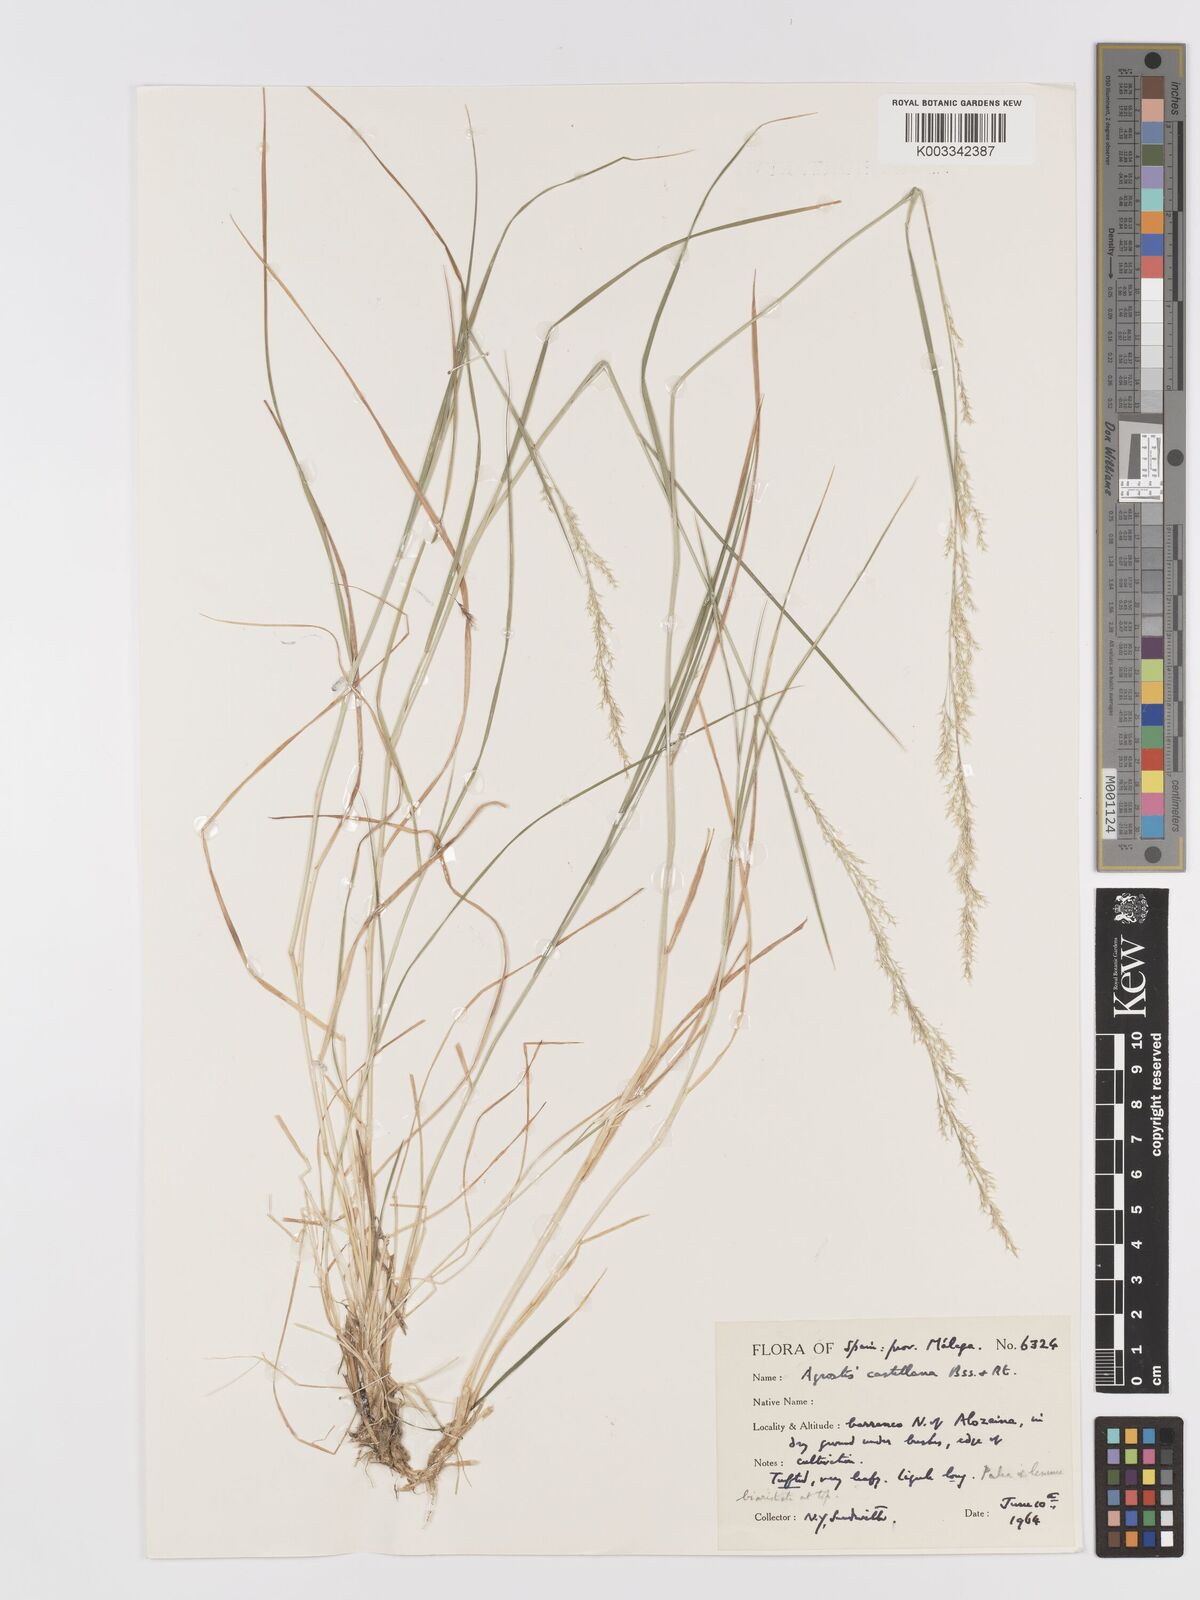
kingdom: Plantae
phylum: Tracheophyta
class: Liliopsida
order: Poales
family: Poaceae
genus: Agrostis
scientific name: Agrostis castellana
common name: Highland bent
